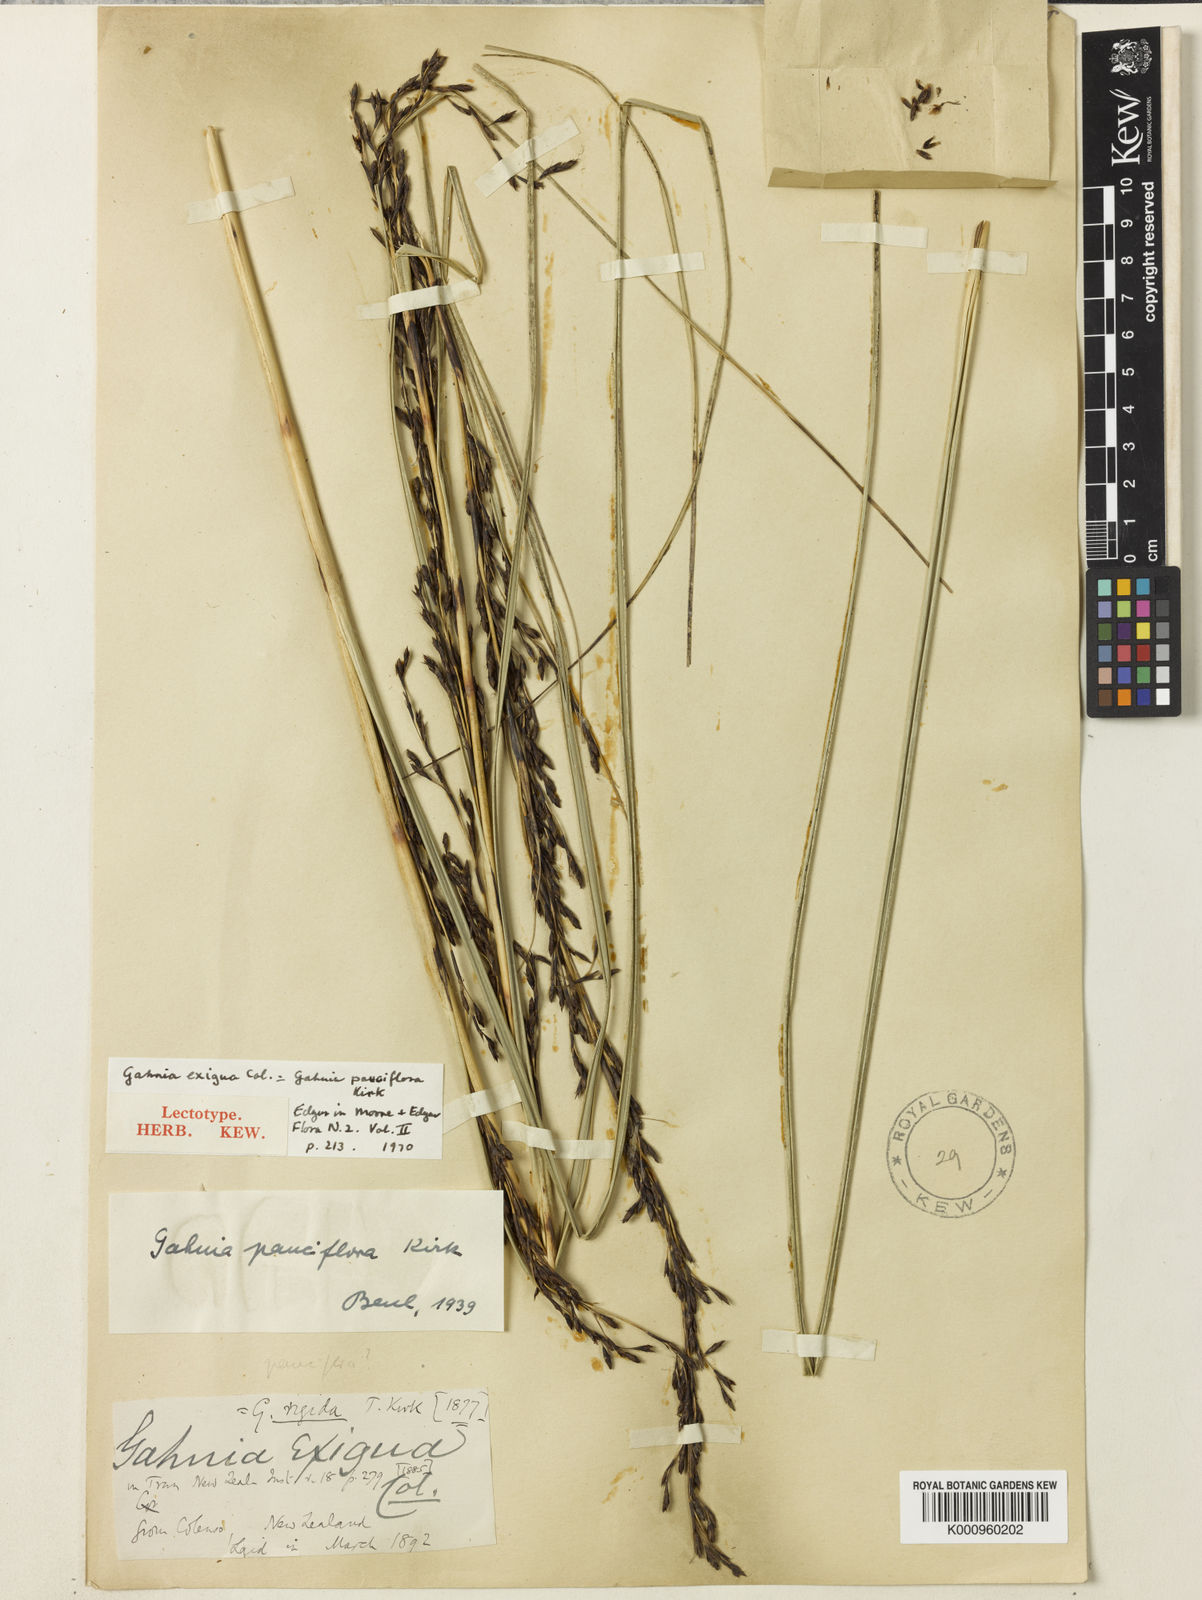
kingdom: Plantae
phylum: Tracheophyta
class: Liliopsida
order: Poales
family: Cyperaceae
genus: Gahnia
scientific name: Gahnia pauciflora
